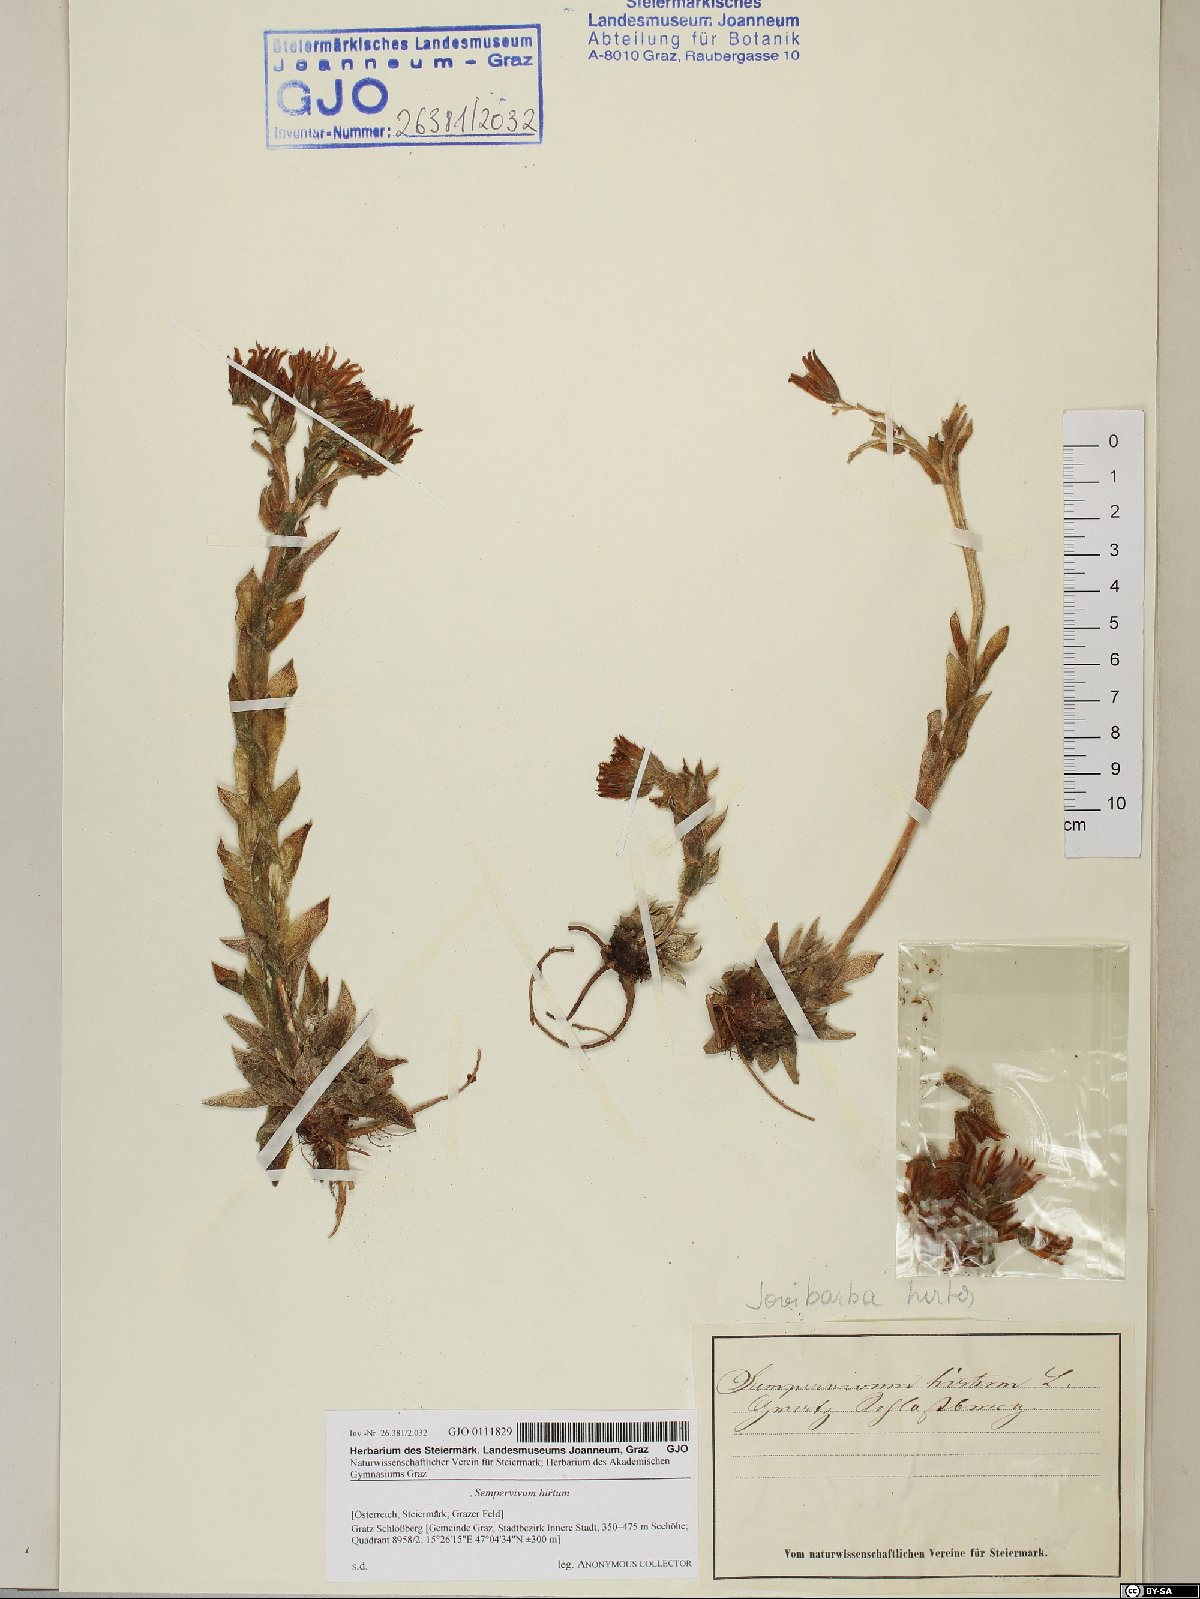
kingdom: Plantae
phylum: Tracheophyta
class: Magnoliopsida
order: Saxifragales
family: Crassulaceae
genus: Sempervivum
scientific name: Sempervivum globiferum
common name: Rolling hen-and-chicks
